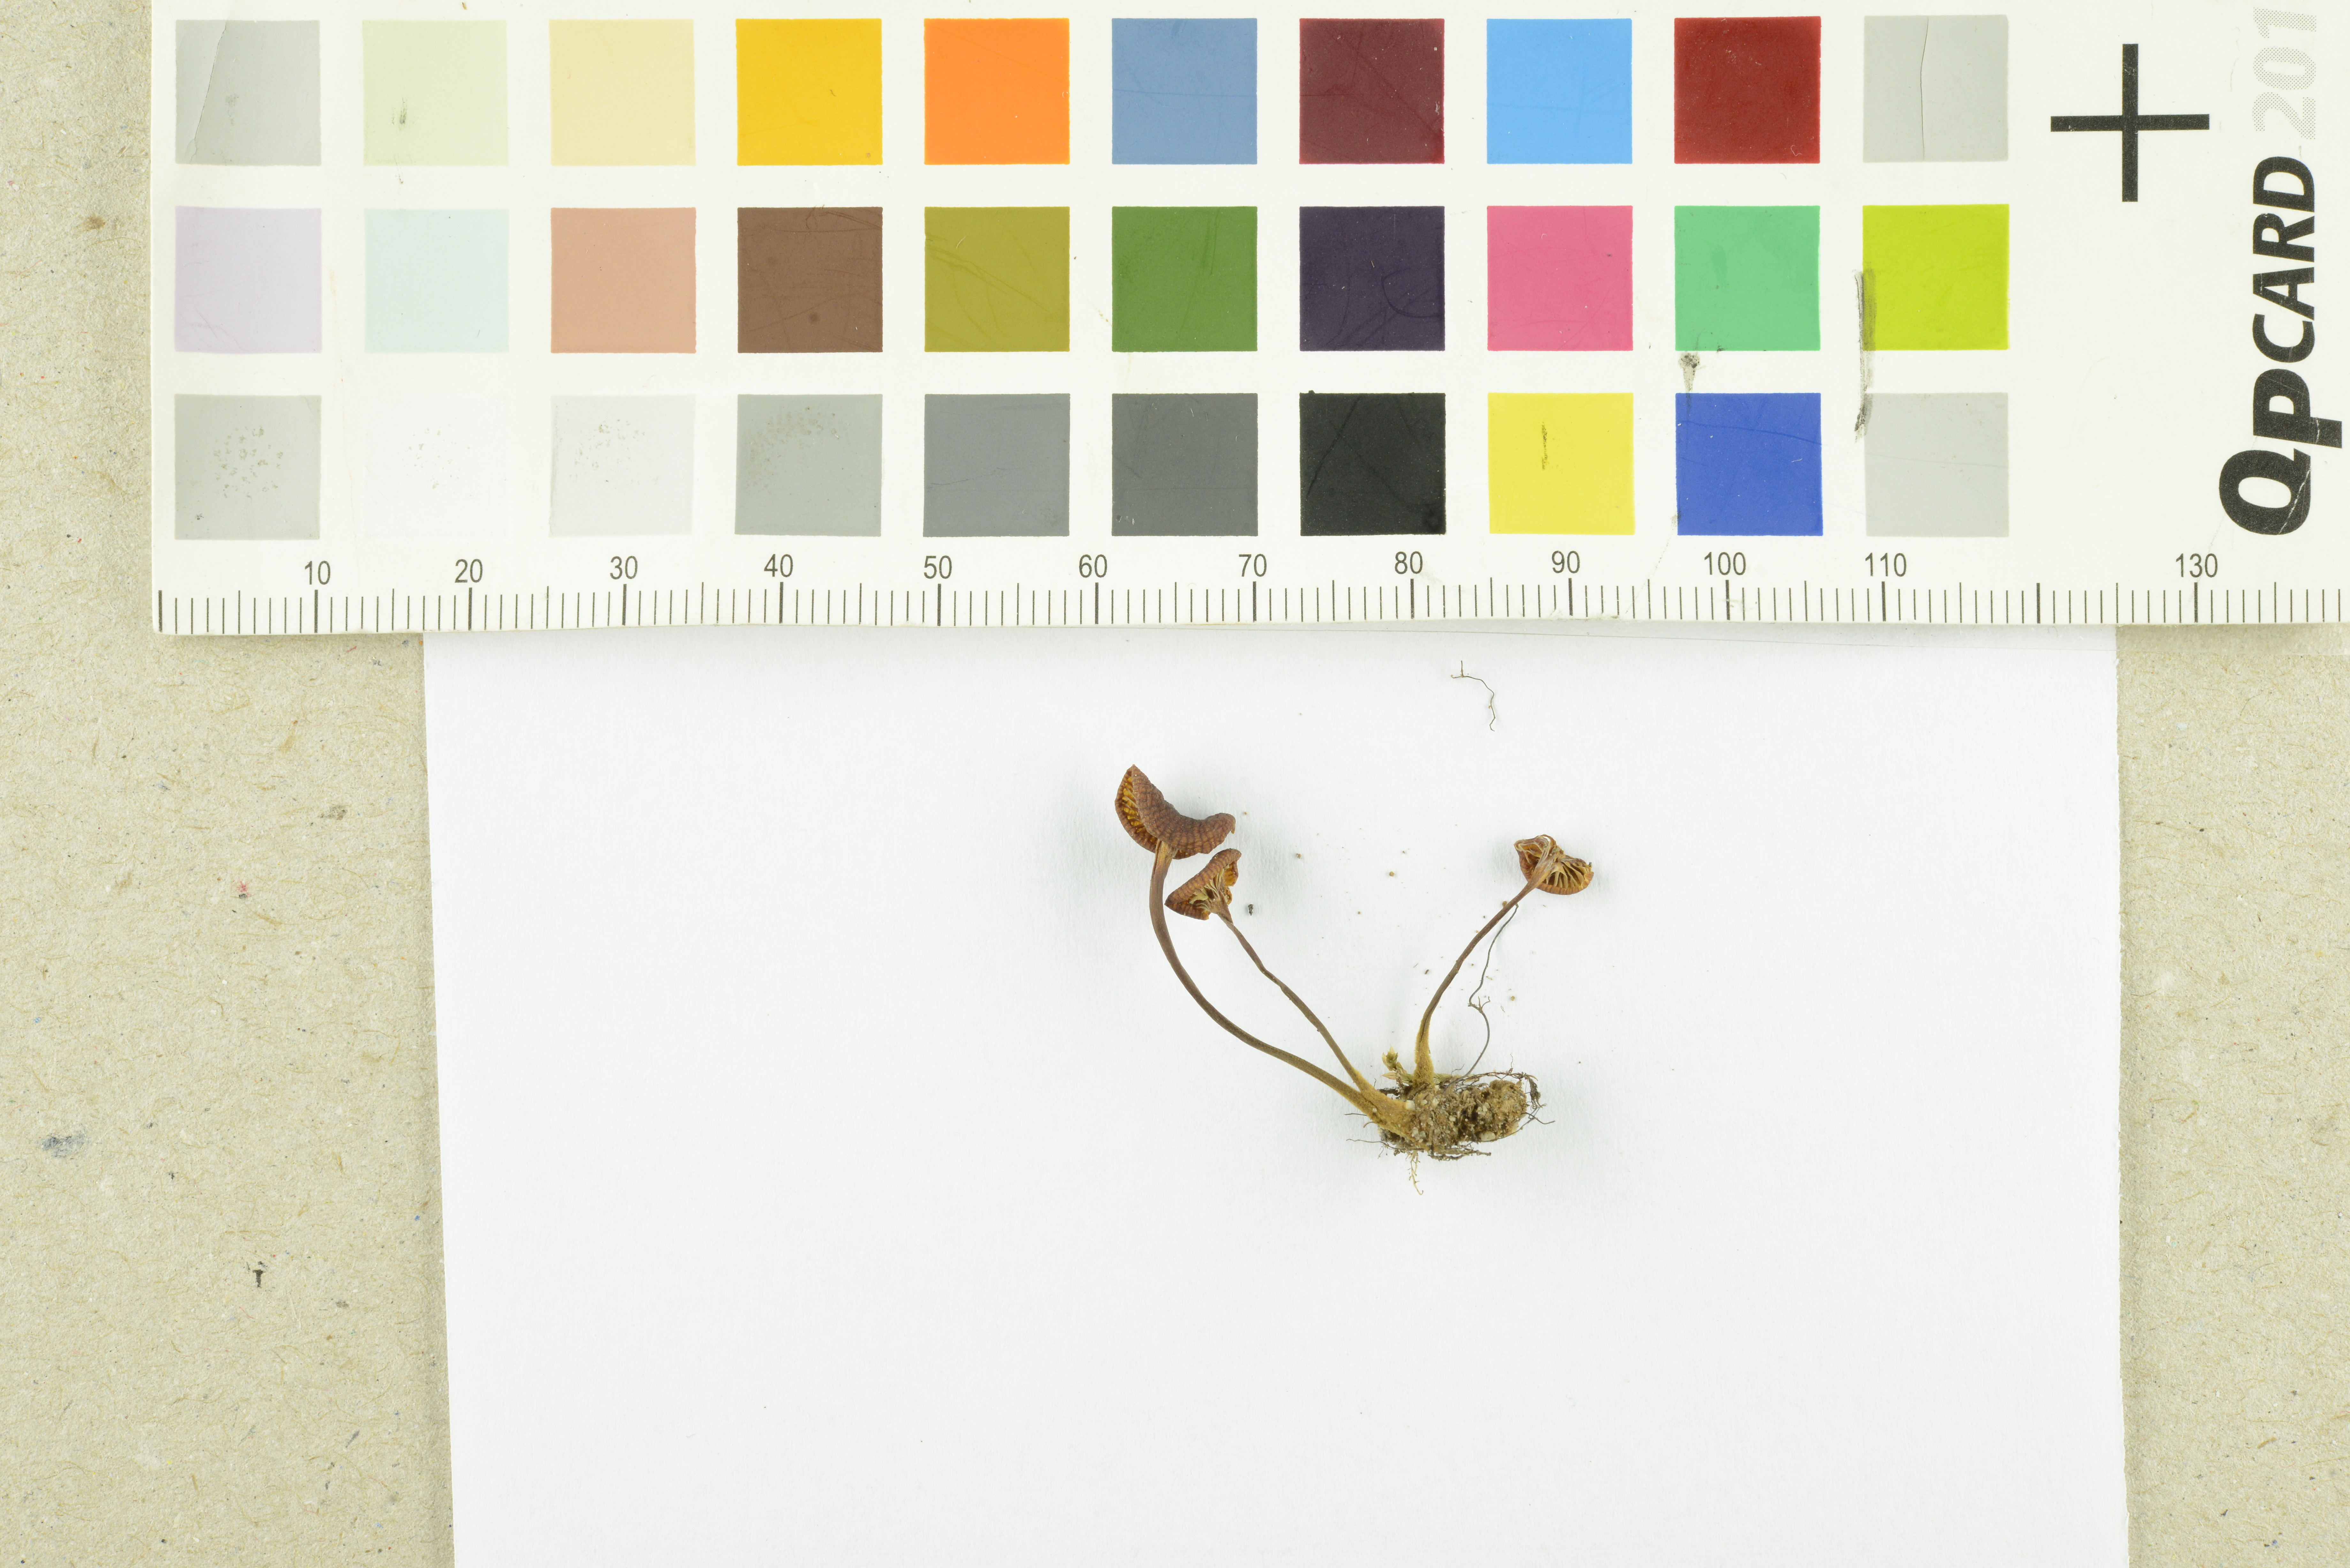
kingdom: Fungi
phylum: Basidiomycota
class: Agaricomycetes
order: Agaricales
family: Mycenaceae
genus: Xeromphalina
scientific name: Xeromphalina brunneola
